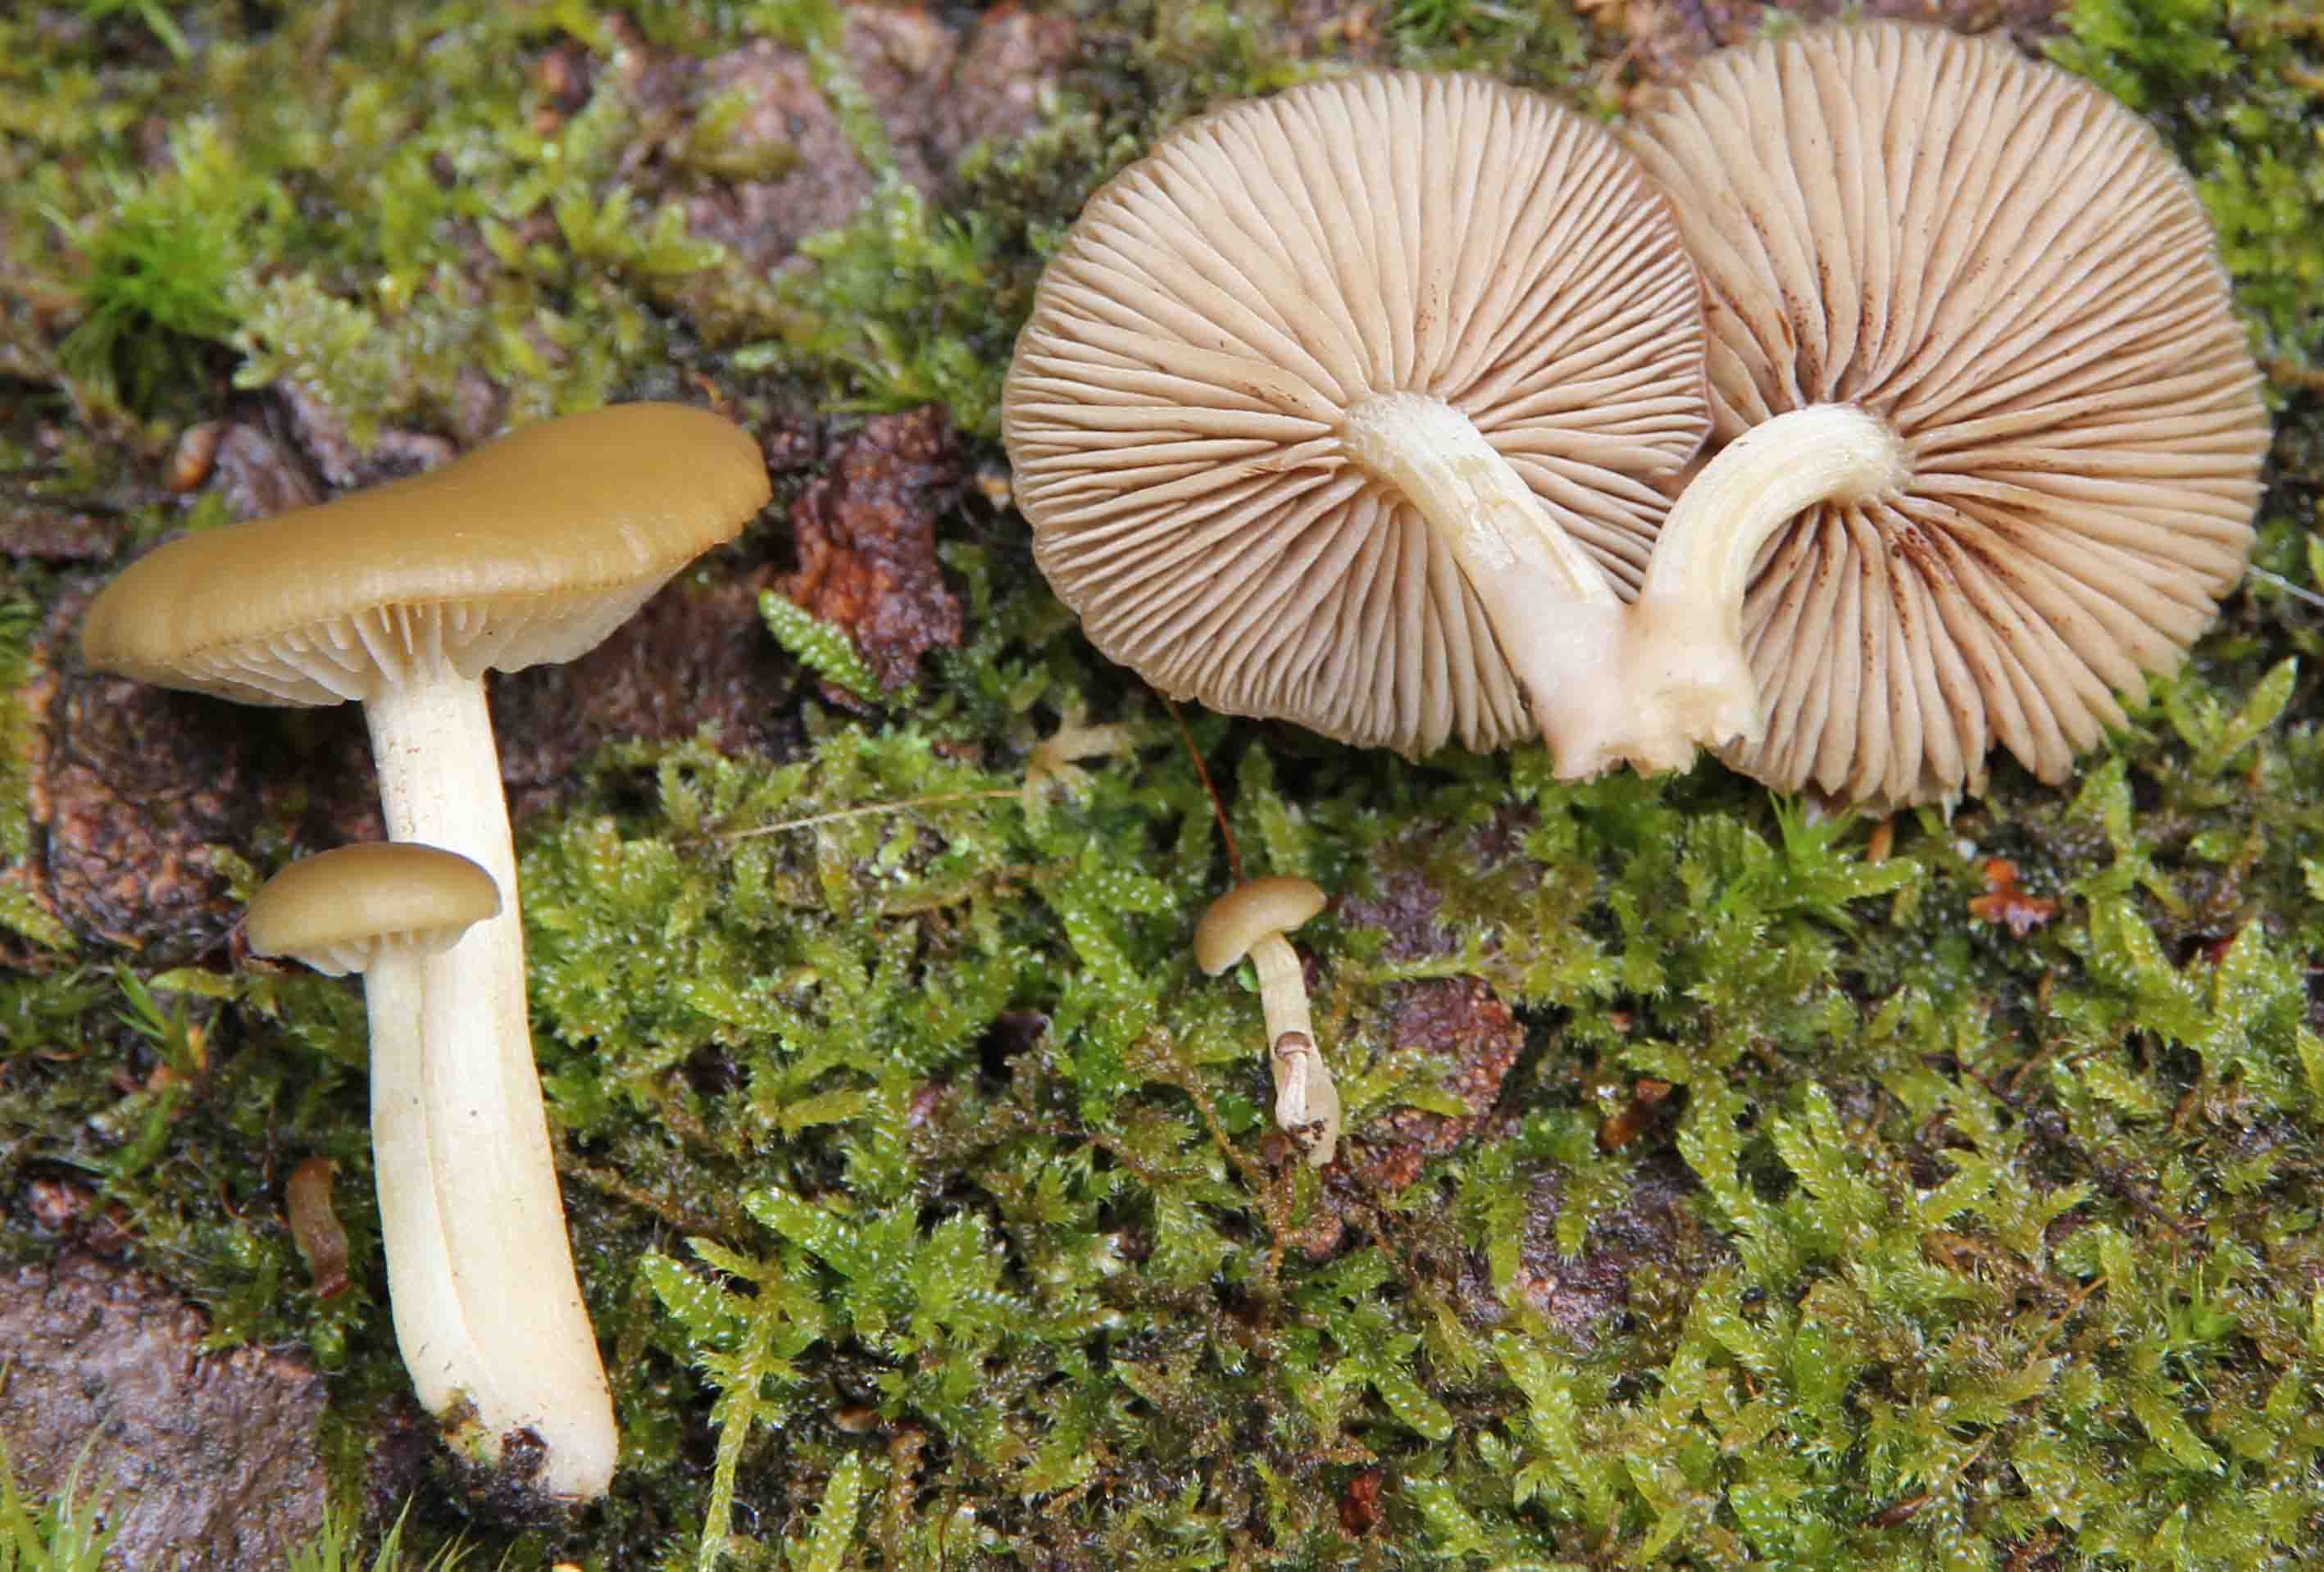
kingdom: Fungi
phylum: Basidiomycota
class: Agaricomycetes
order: Agaricales
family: Crepidotaceae
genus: Simocybe
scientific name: Simocybe sumptuosa
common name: stor skyggehat
